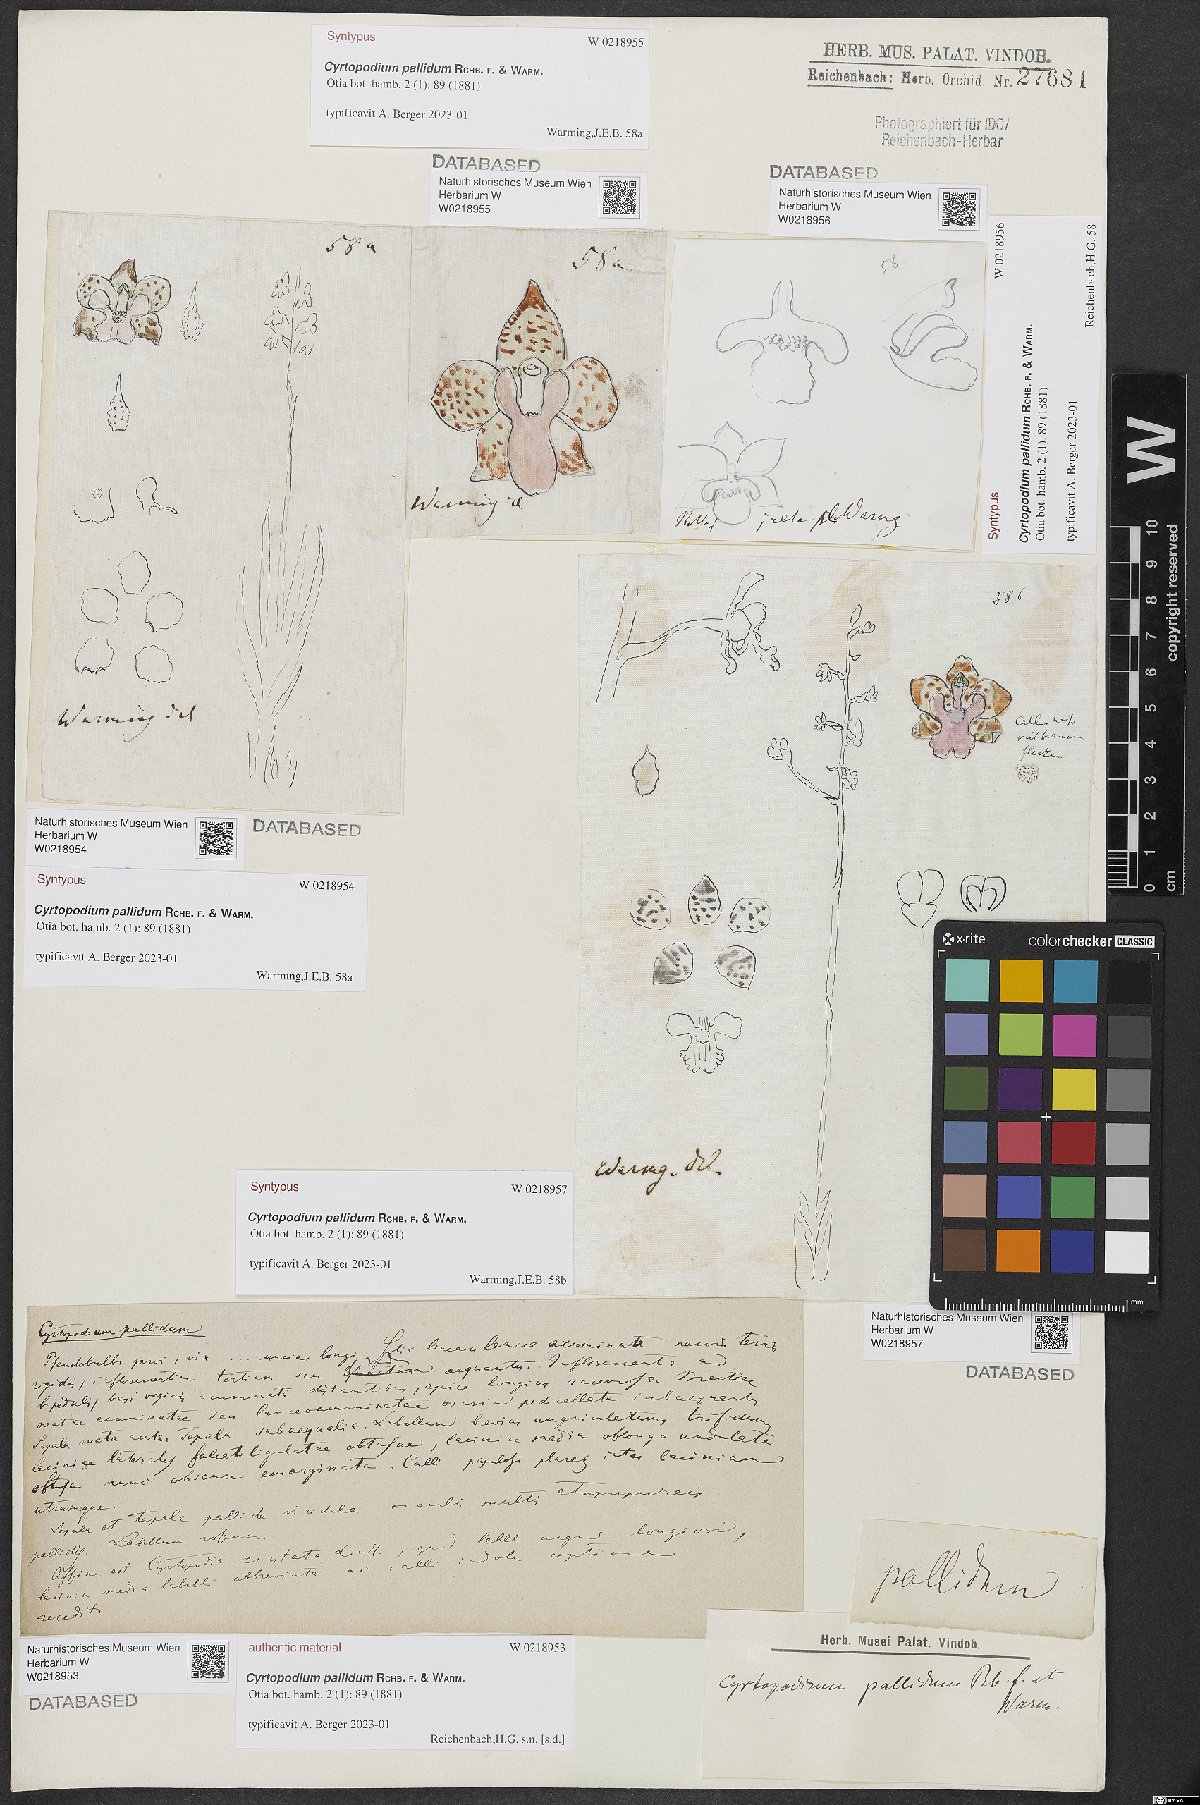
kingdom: Plantae
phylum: Tracheophyta
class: Liliopsida
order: Asparagales
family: Orchidaceae
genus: Cyrtopodium
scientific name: Cyrtopodium pallidum
